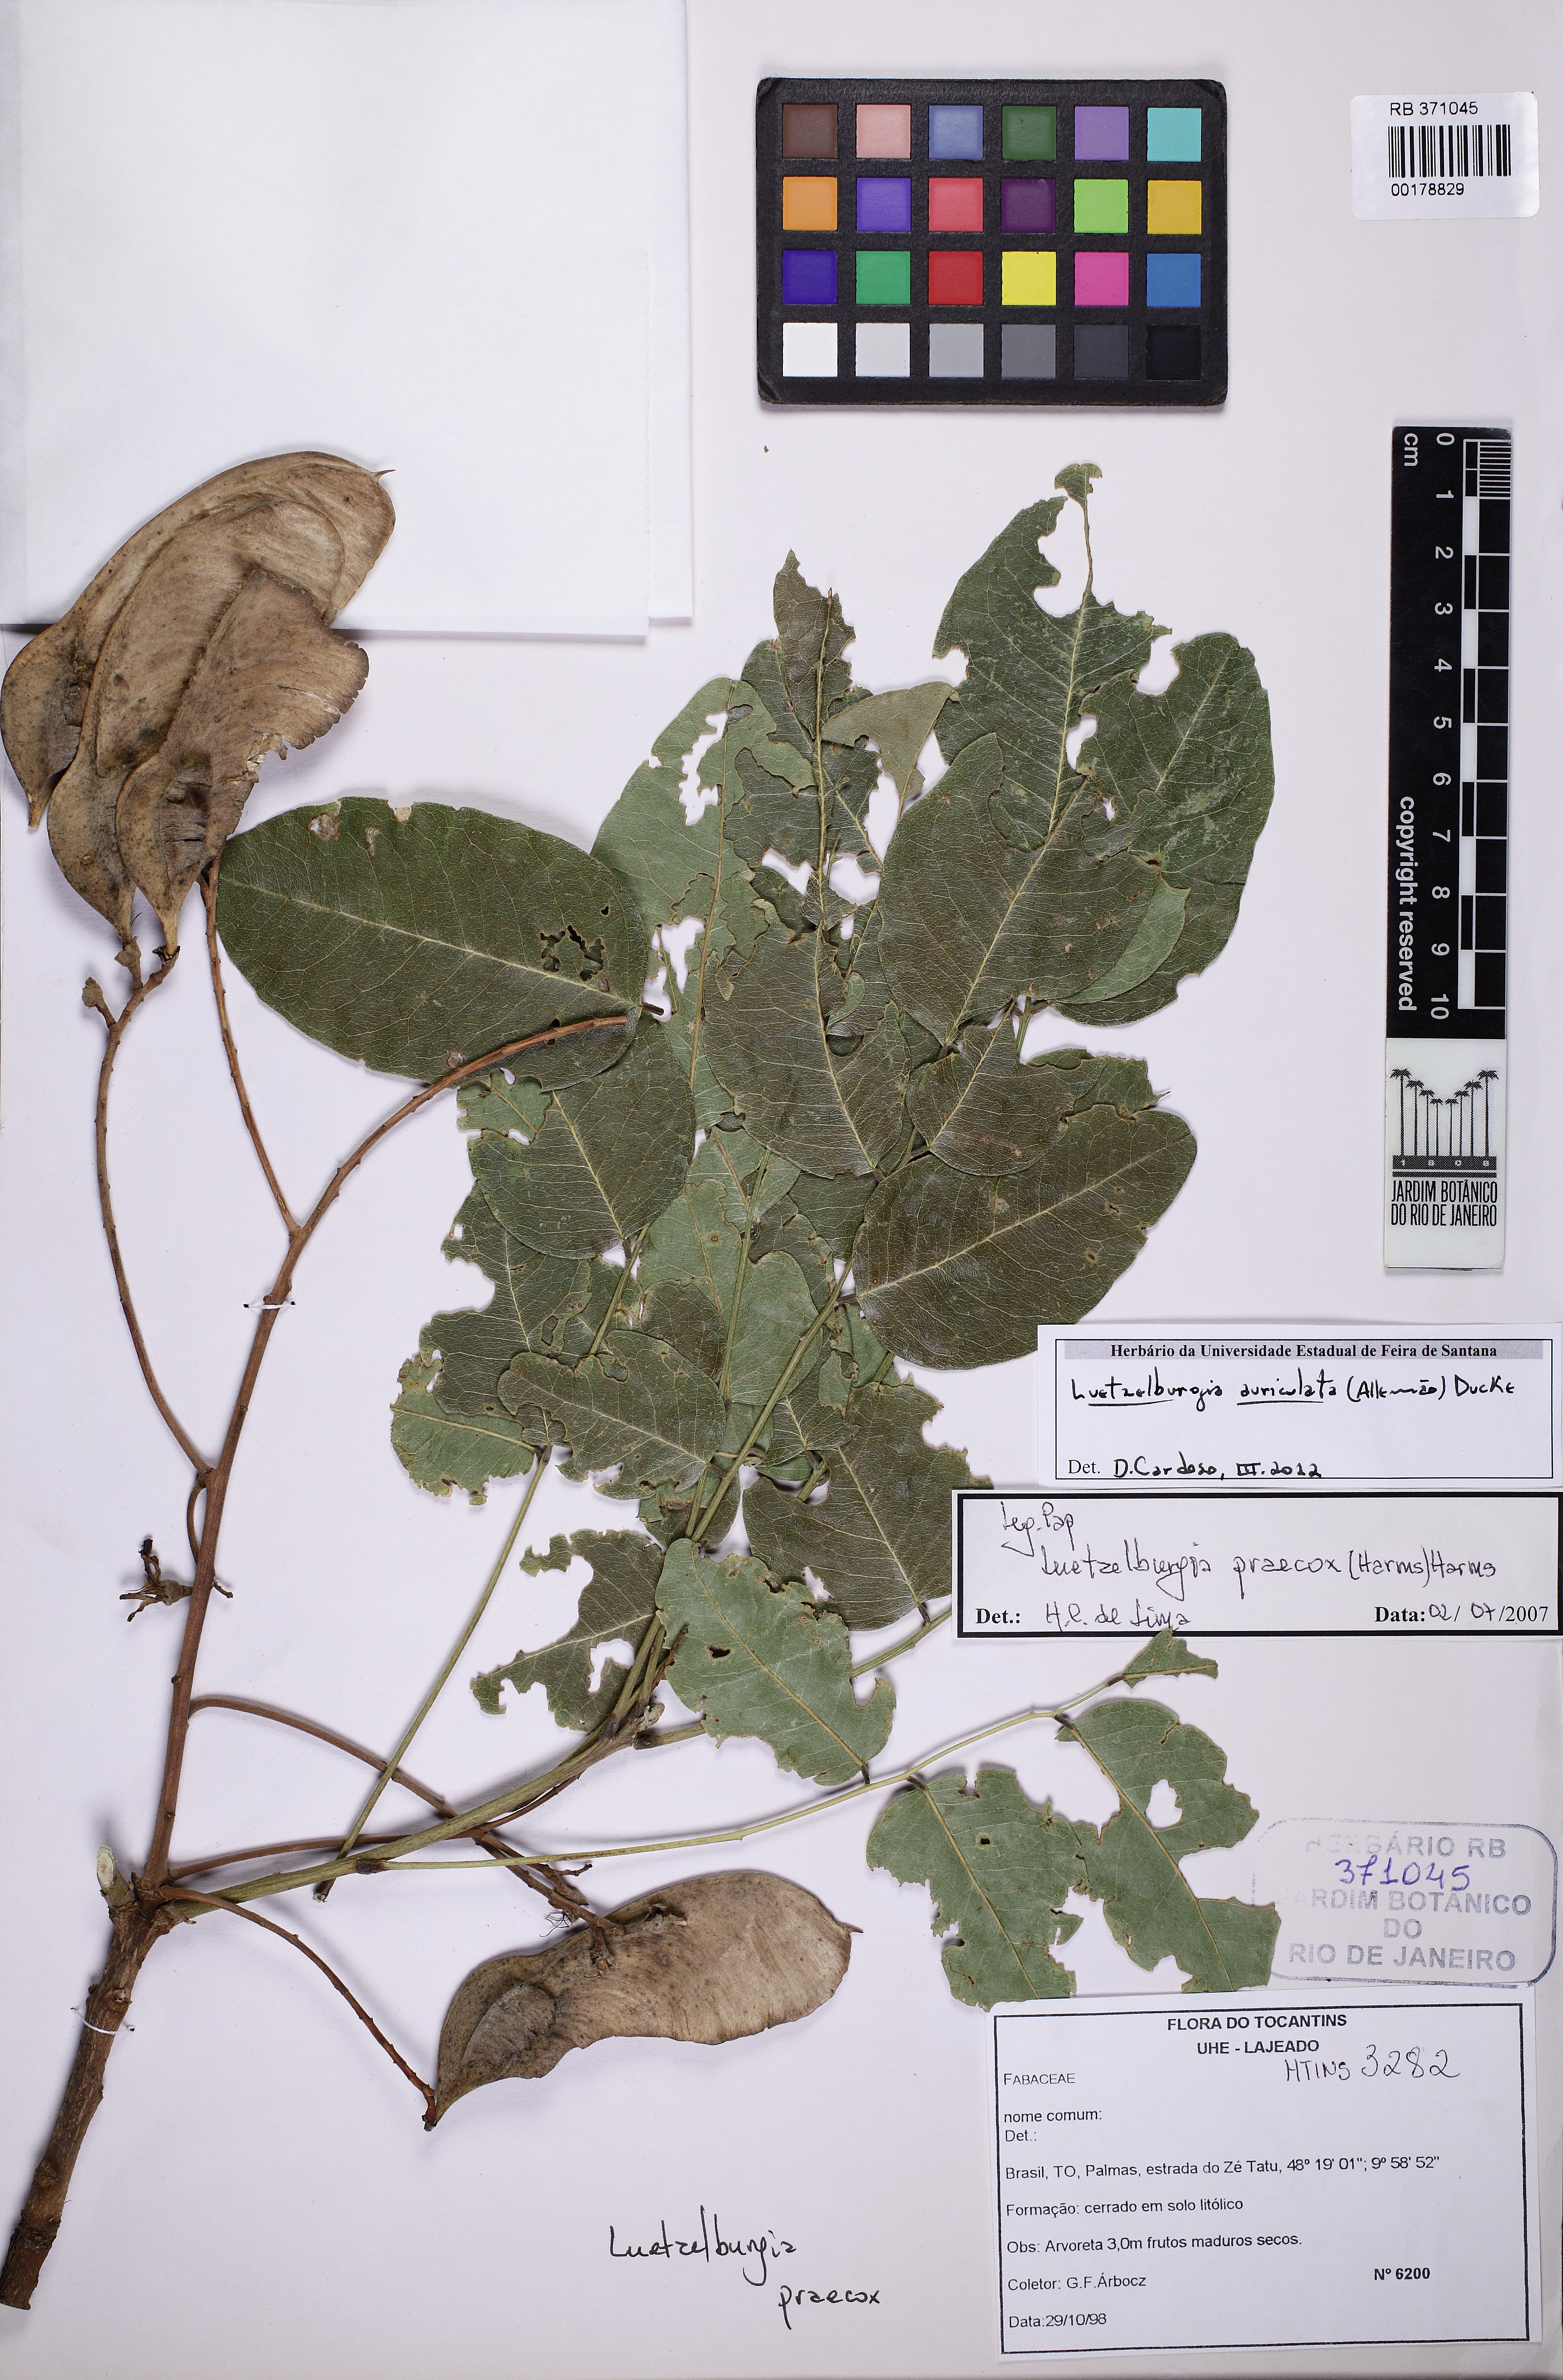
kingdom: Plantae
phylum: Tracheophyta
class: Magnoliopsida
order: Fabales
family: Fabaceae
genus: Luetzelburgia
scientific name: Luetzelburgia auriculata
